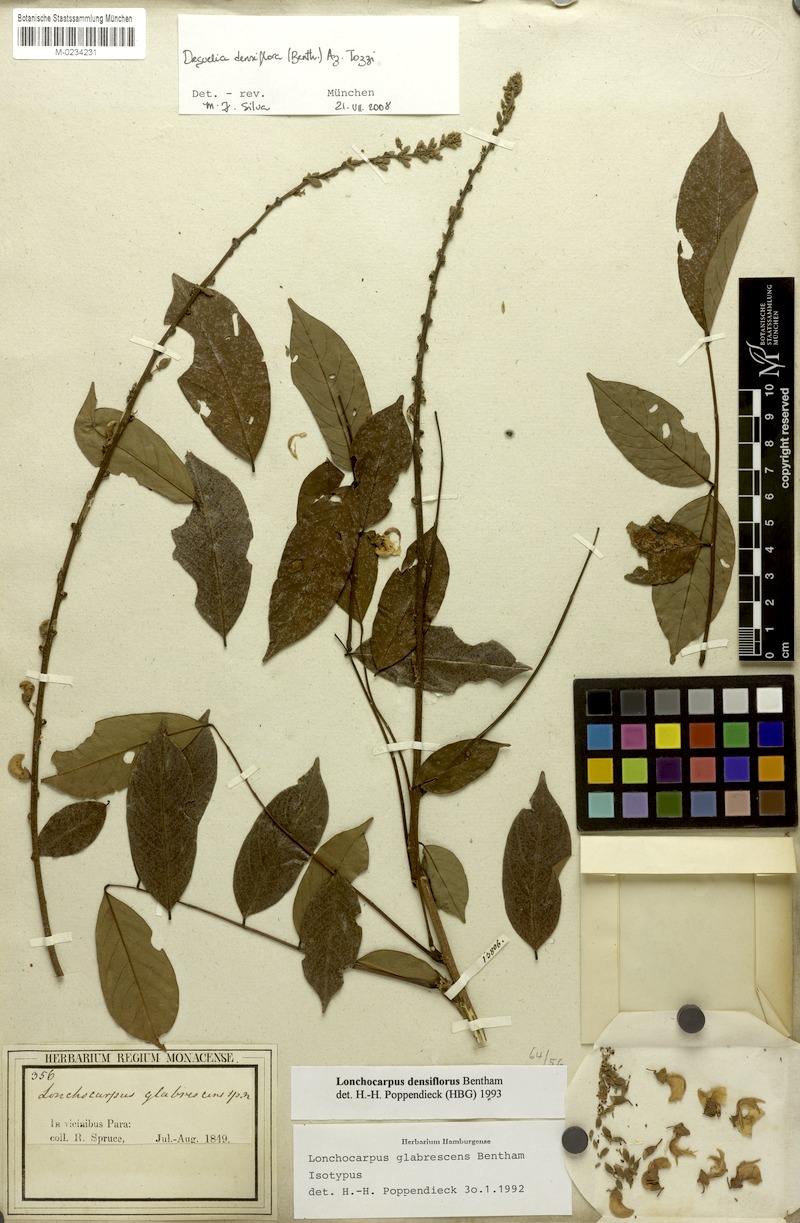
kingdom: Plantae
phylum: Tracheophyta
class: Magnoliopsida
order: Fabales
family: Fabaceae
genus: Deguelia
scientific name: Deguelia densiflora
